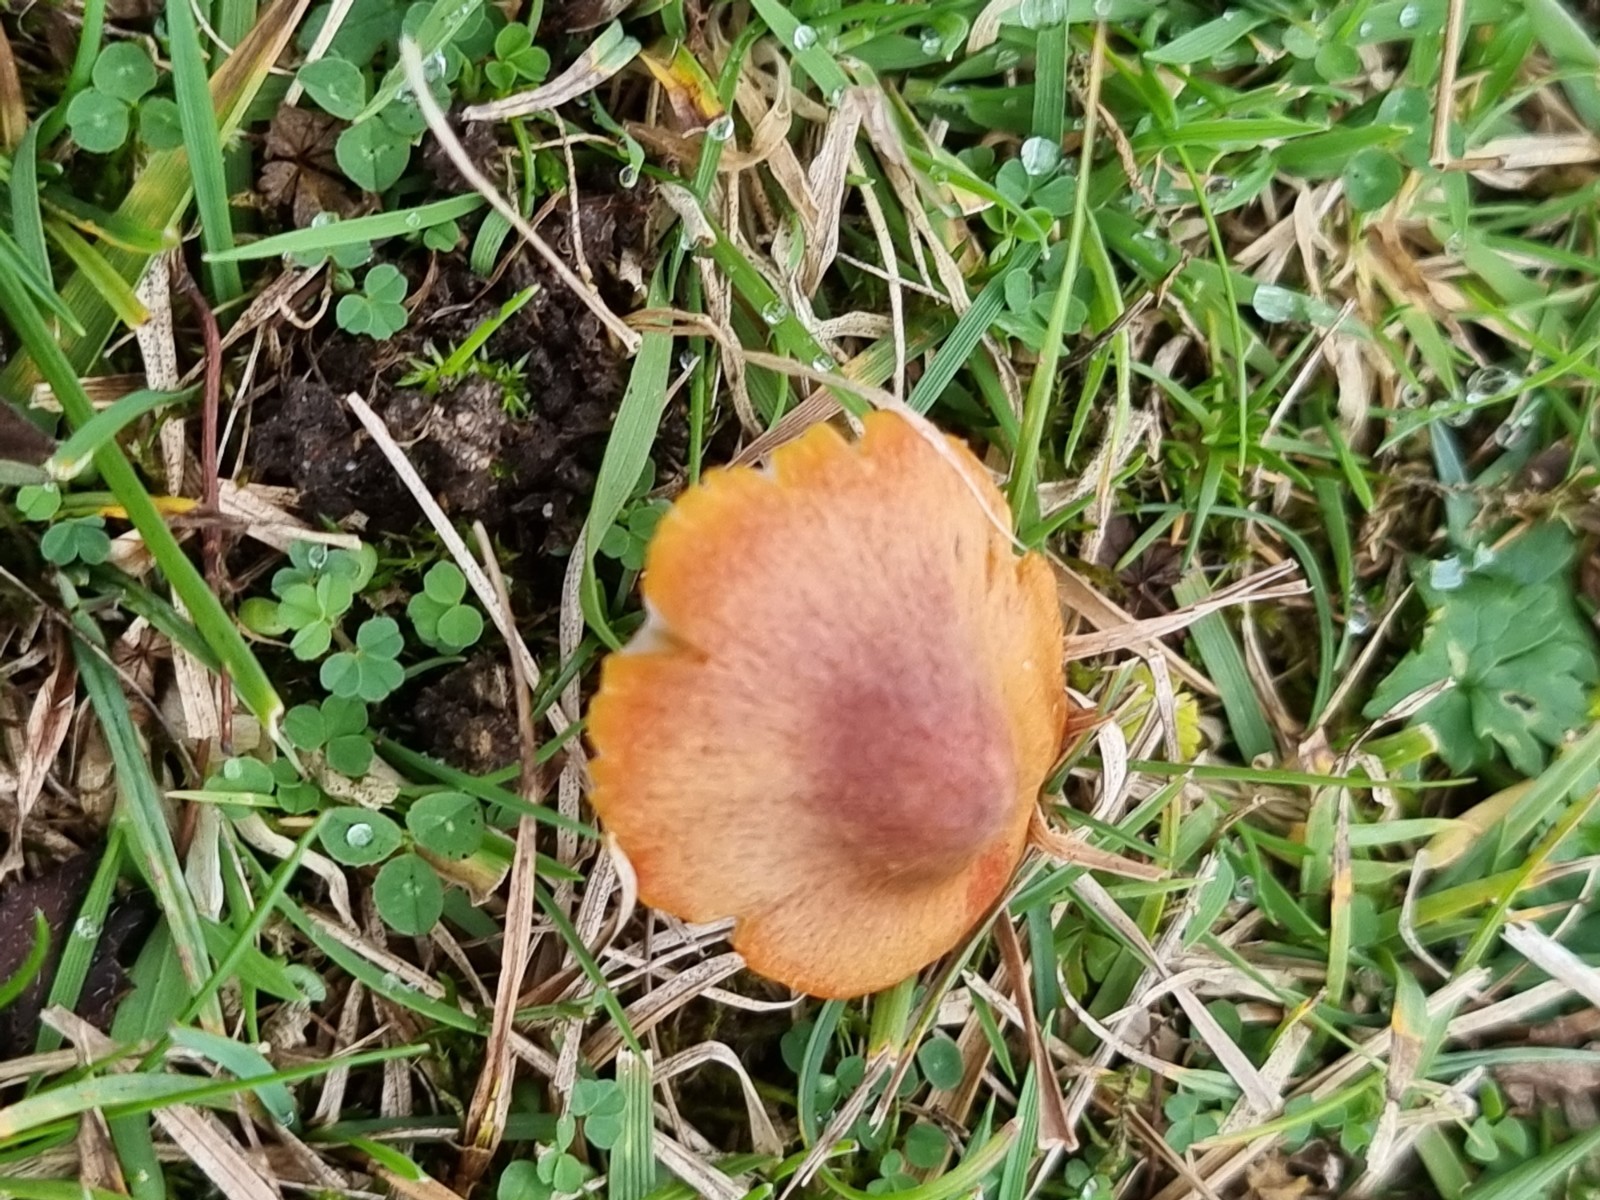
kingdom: Fungi
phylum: Basidiomycota
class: Agaricomycetes
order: Agaricales
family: Hygrophoraceae
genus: Hygrocybe
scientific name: Hygrocybe conica
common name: kegle-vokshat
